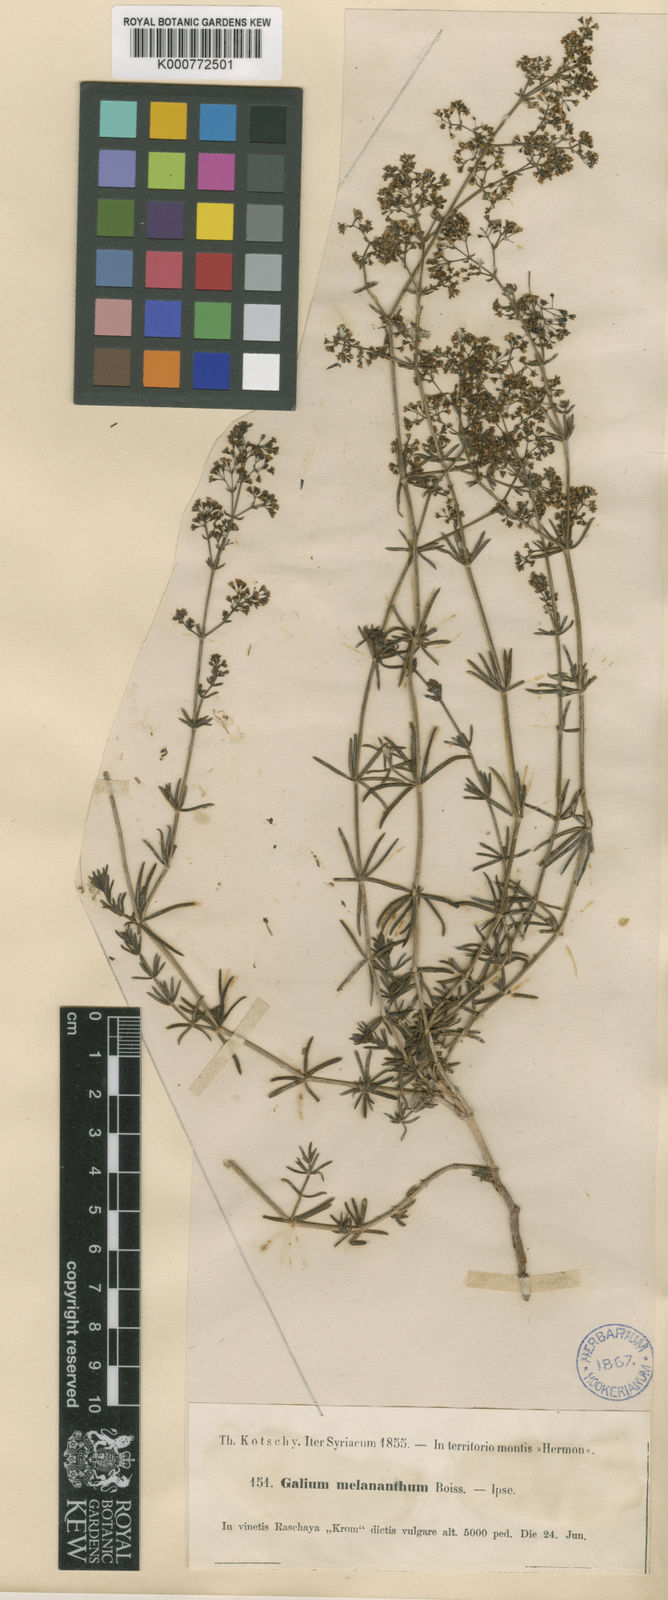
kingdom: Plantae
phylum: Tracheophyta
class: Magnoliopsida
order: Gentianales
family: Rubiaceae
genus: Galium
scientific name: Galium incurvum
